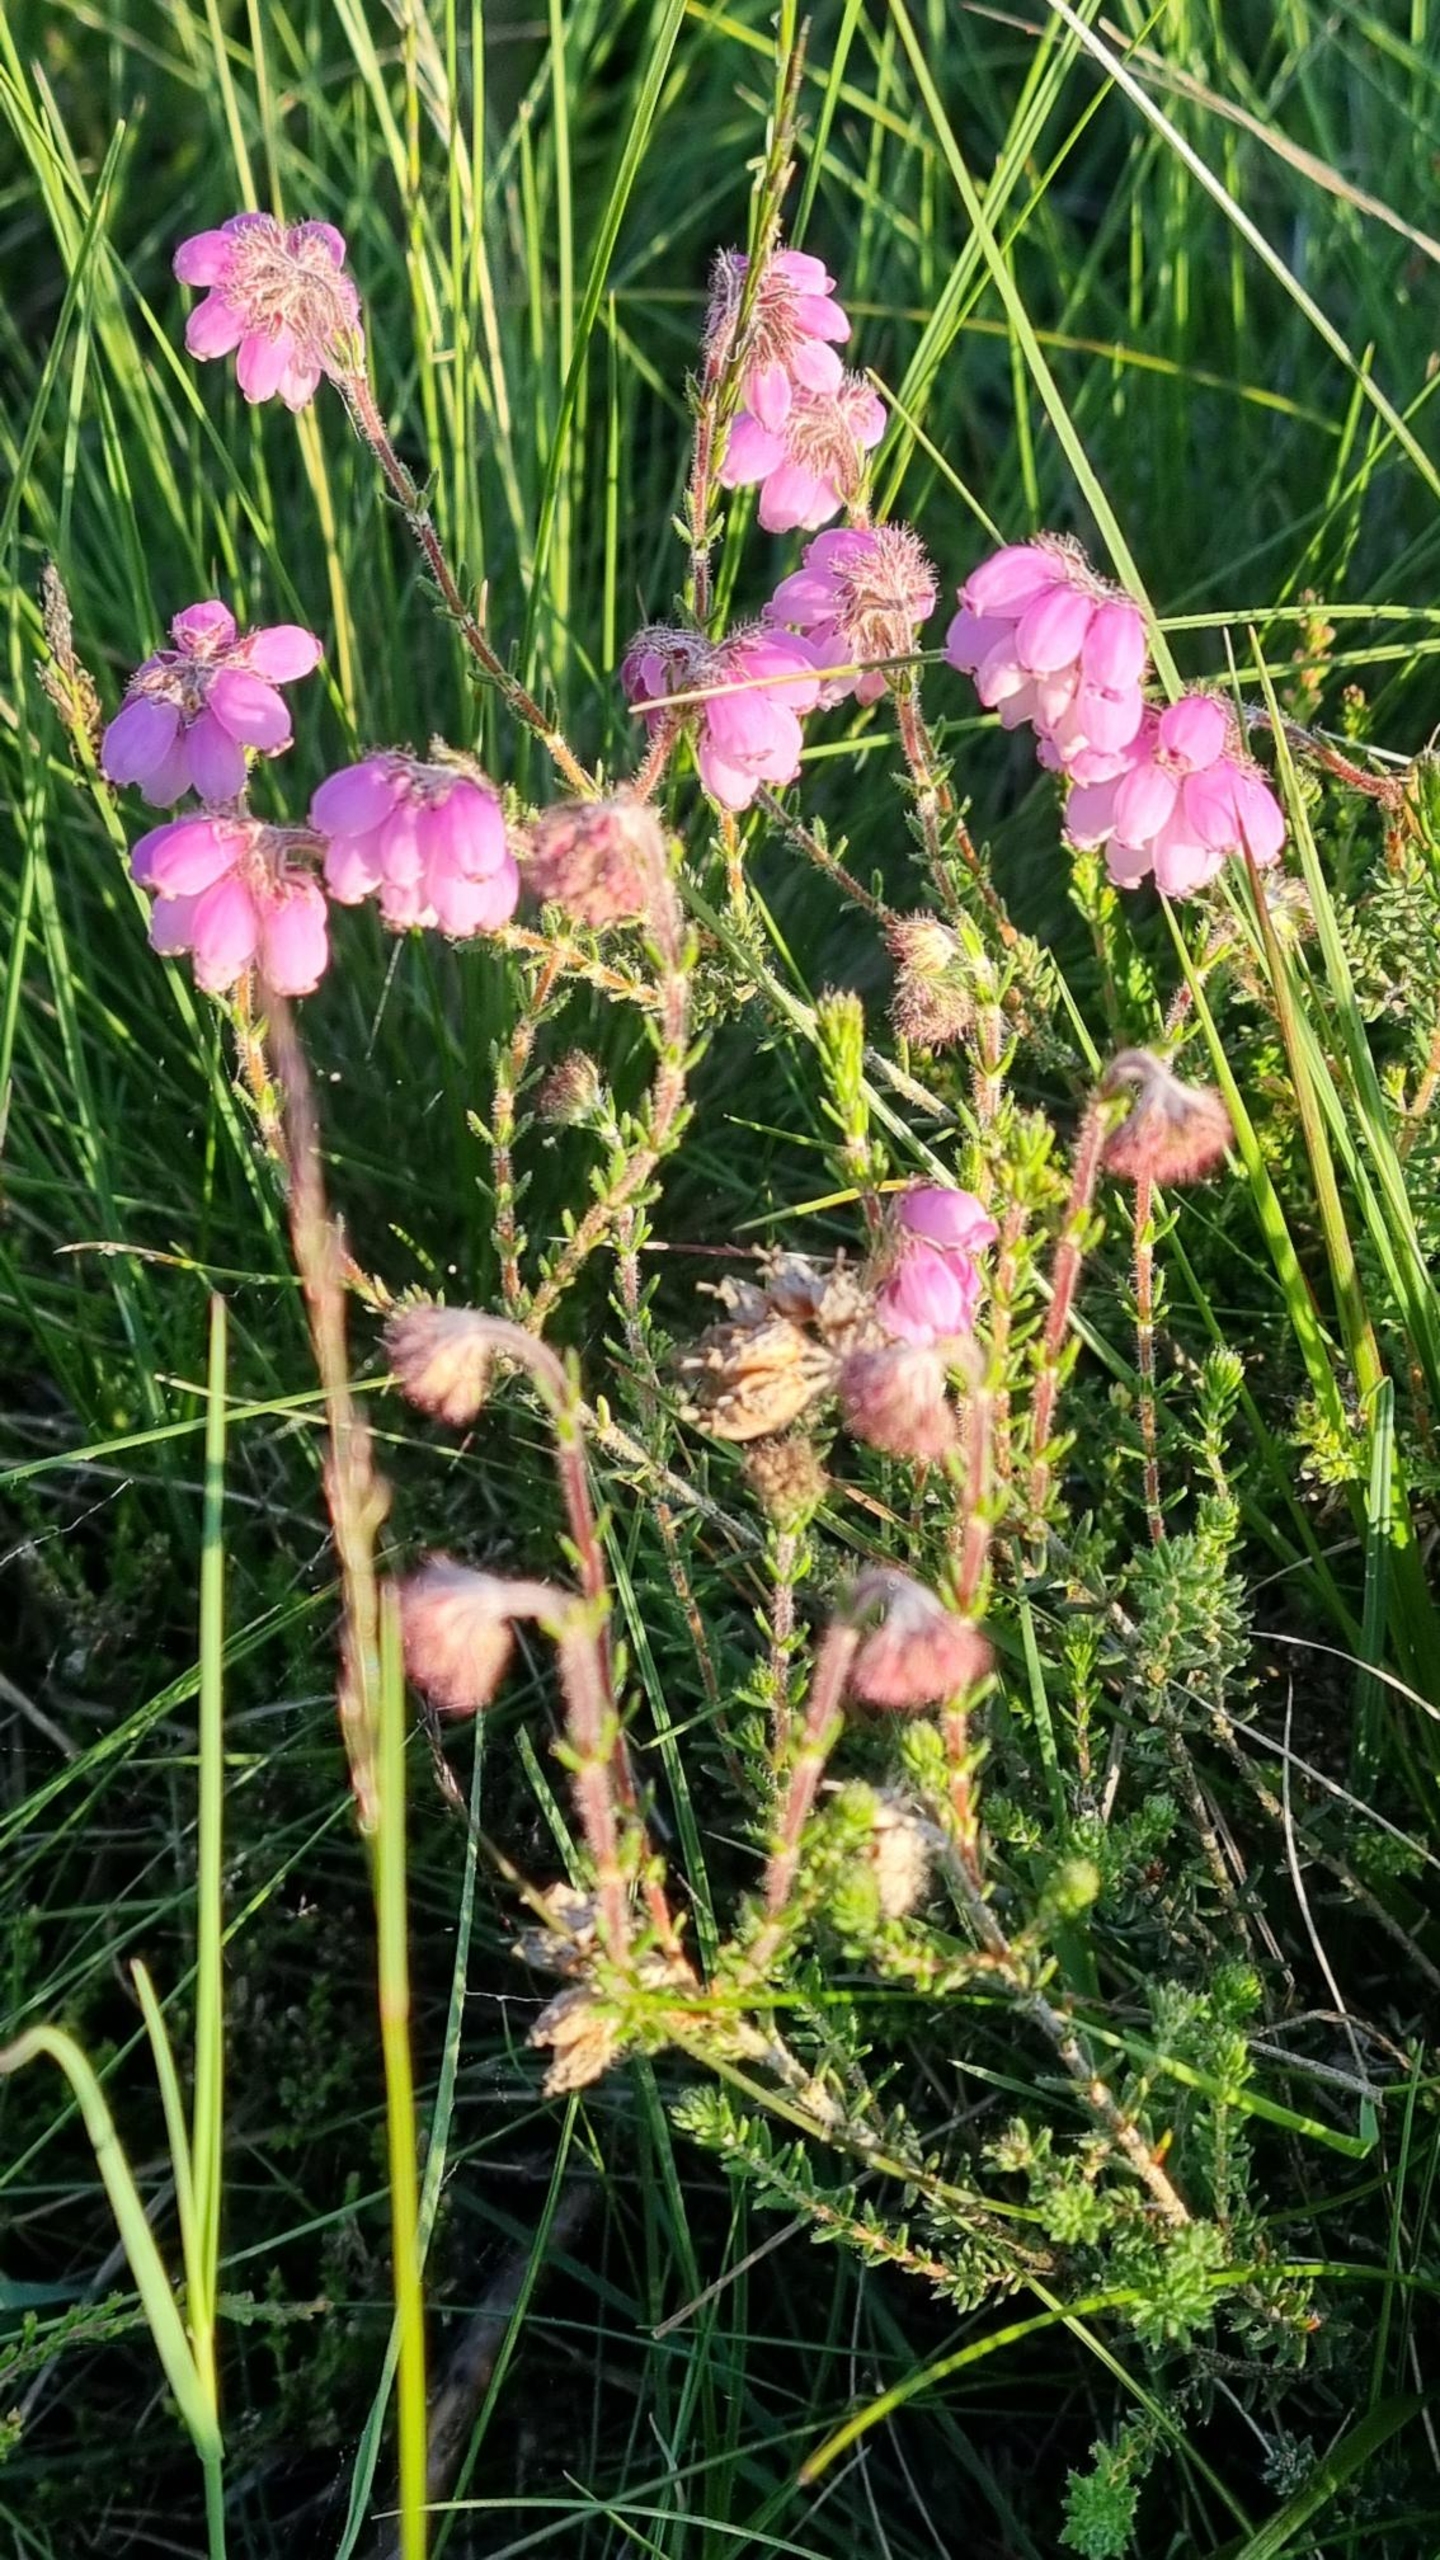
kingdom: Plantae
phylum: Tracheophyta
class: Magnoliopsida
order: Ericales
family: Ericaceae
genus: Erica
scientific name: Erica tetralix
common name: Klokkelyng
